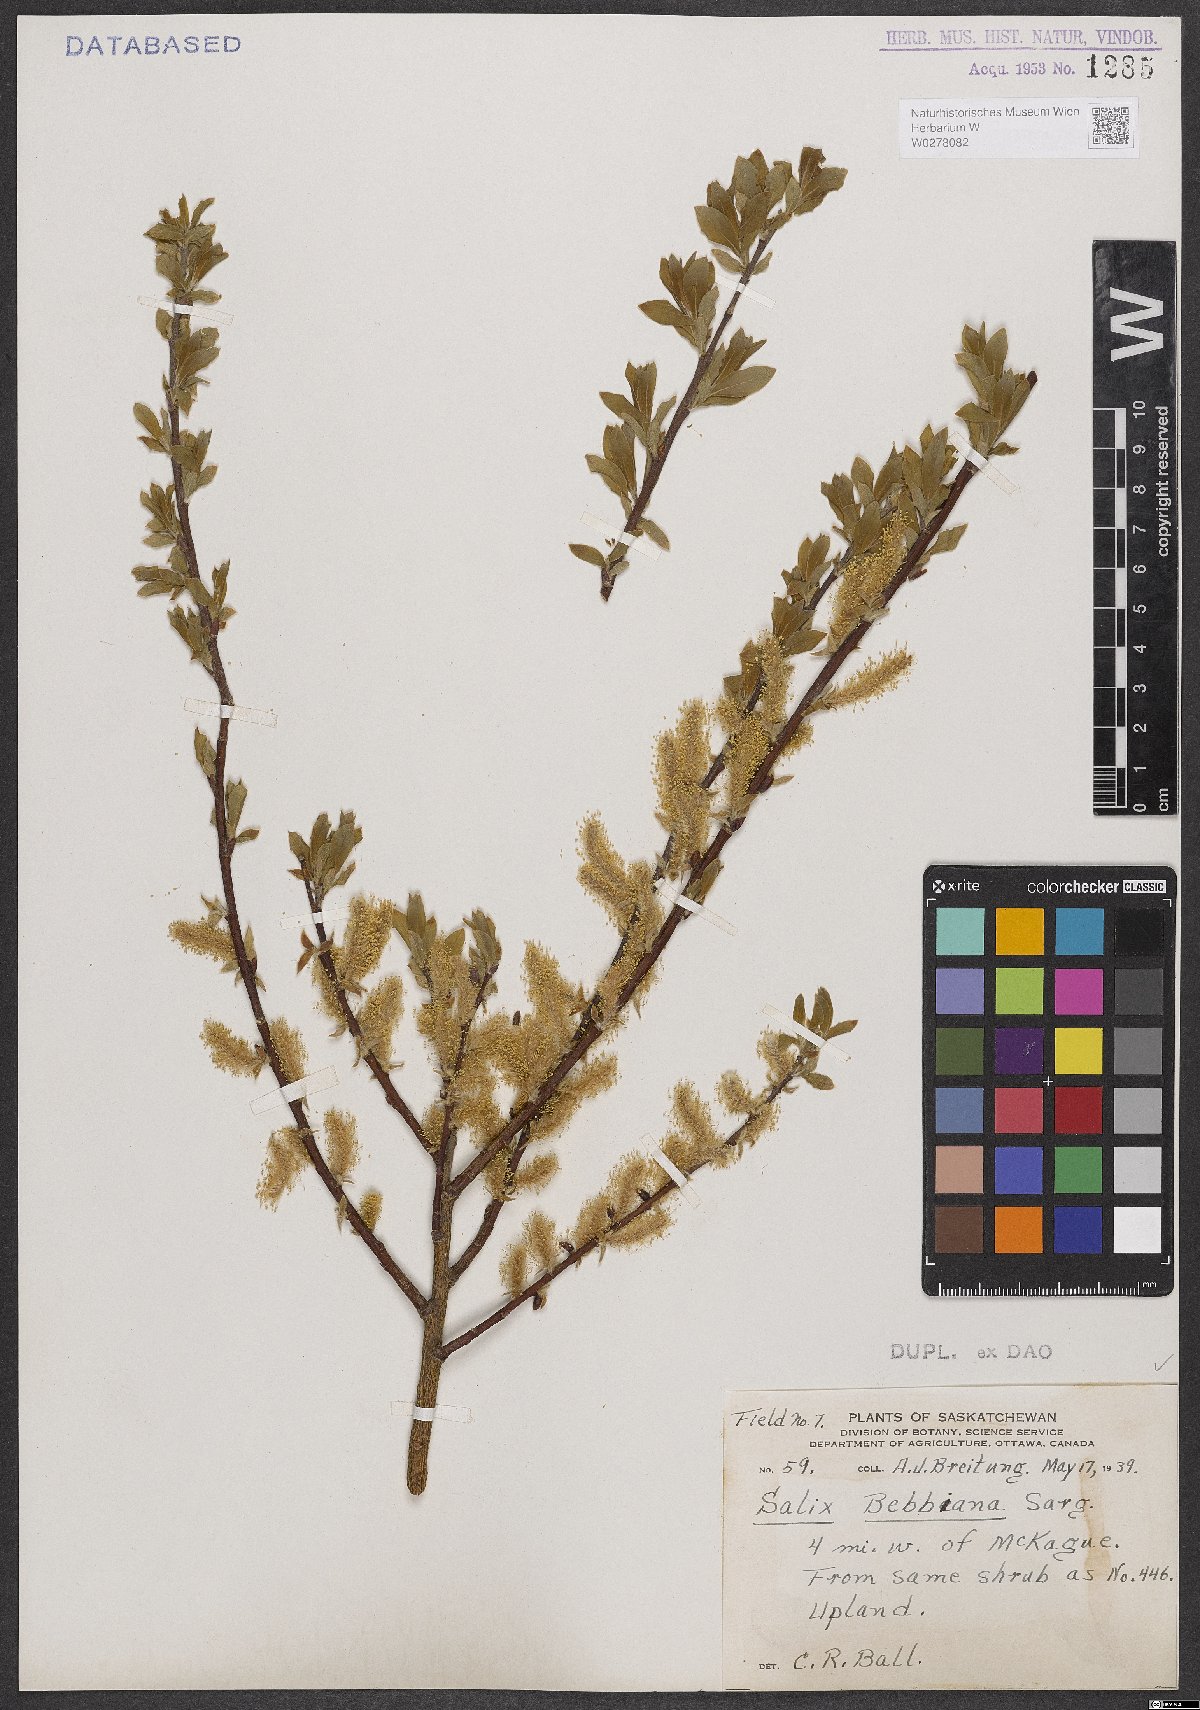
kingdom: Plantae
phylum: Tracheophyta
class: Magnoliopsida
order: Malpighiales
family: Salicaceae
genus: Salix
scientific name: Salix bebbiana
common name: Bebb's willow
